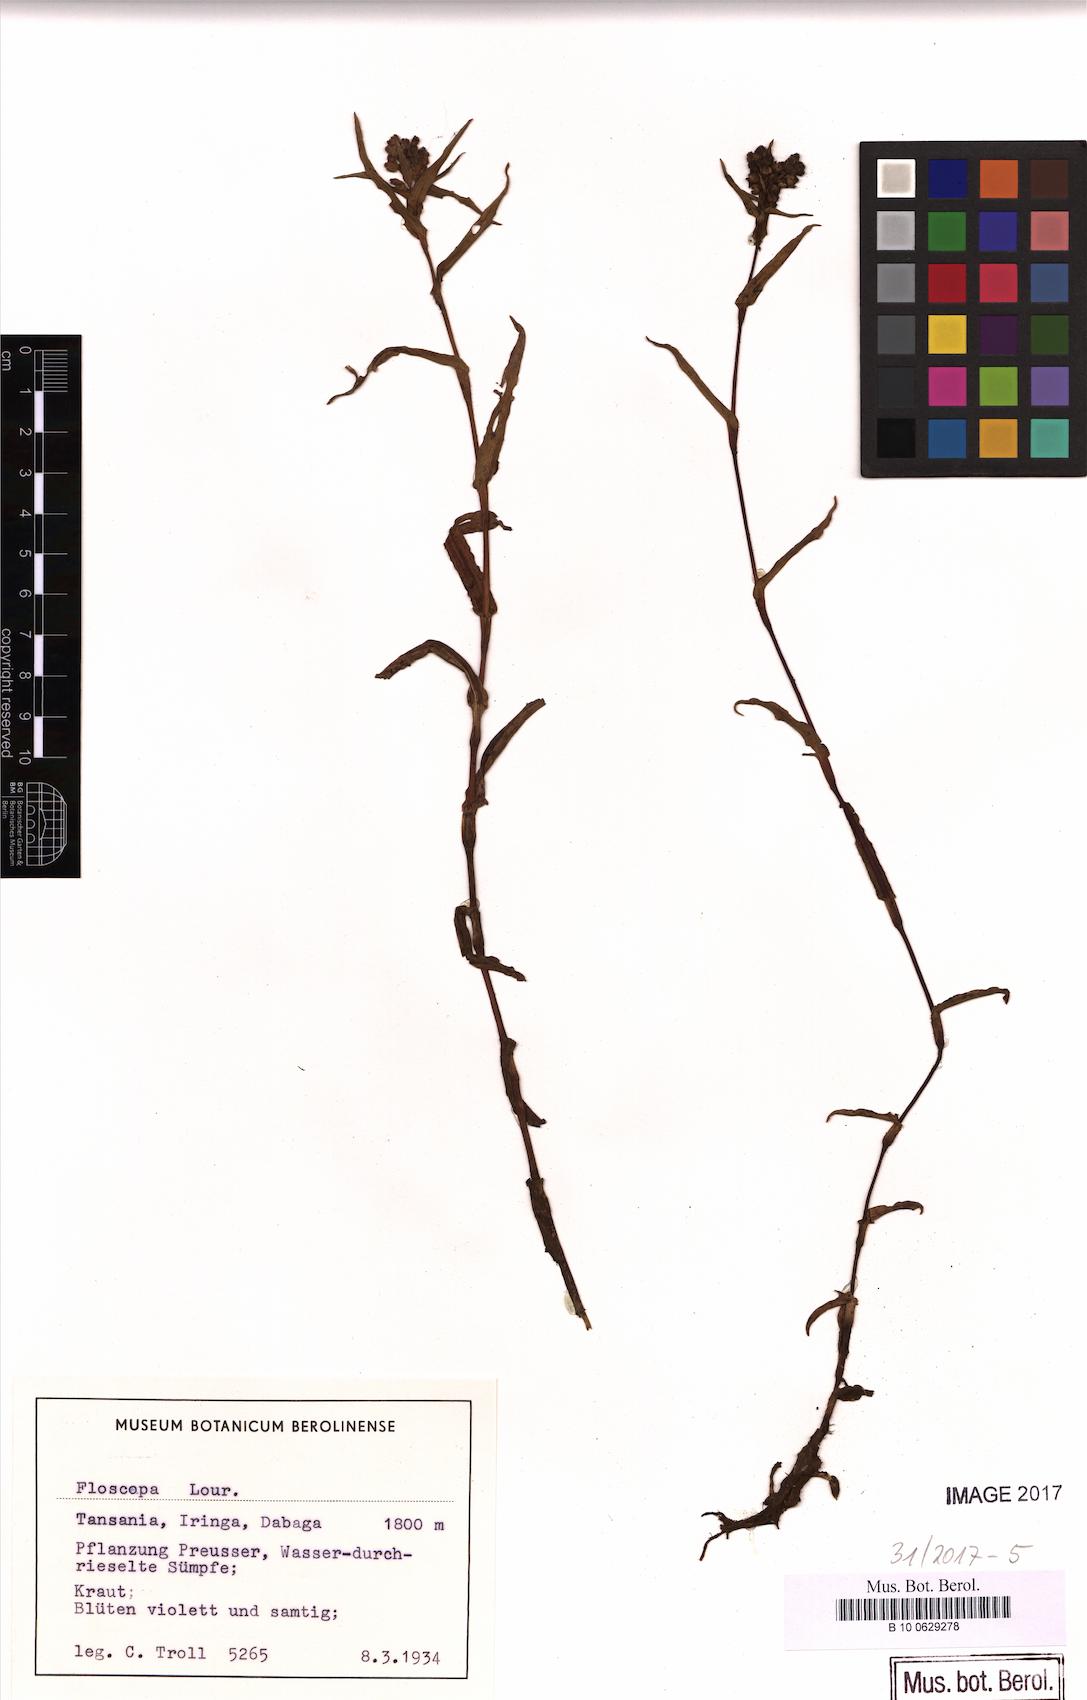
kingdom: Plantae
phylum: Tracheophyta
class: Liliopsida
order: Commelinales
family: Commelinaceae
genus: Floscopa
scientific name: Floscopa
